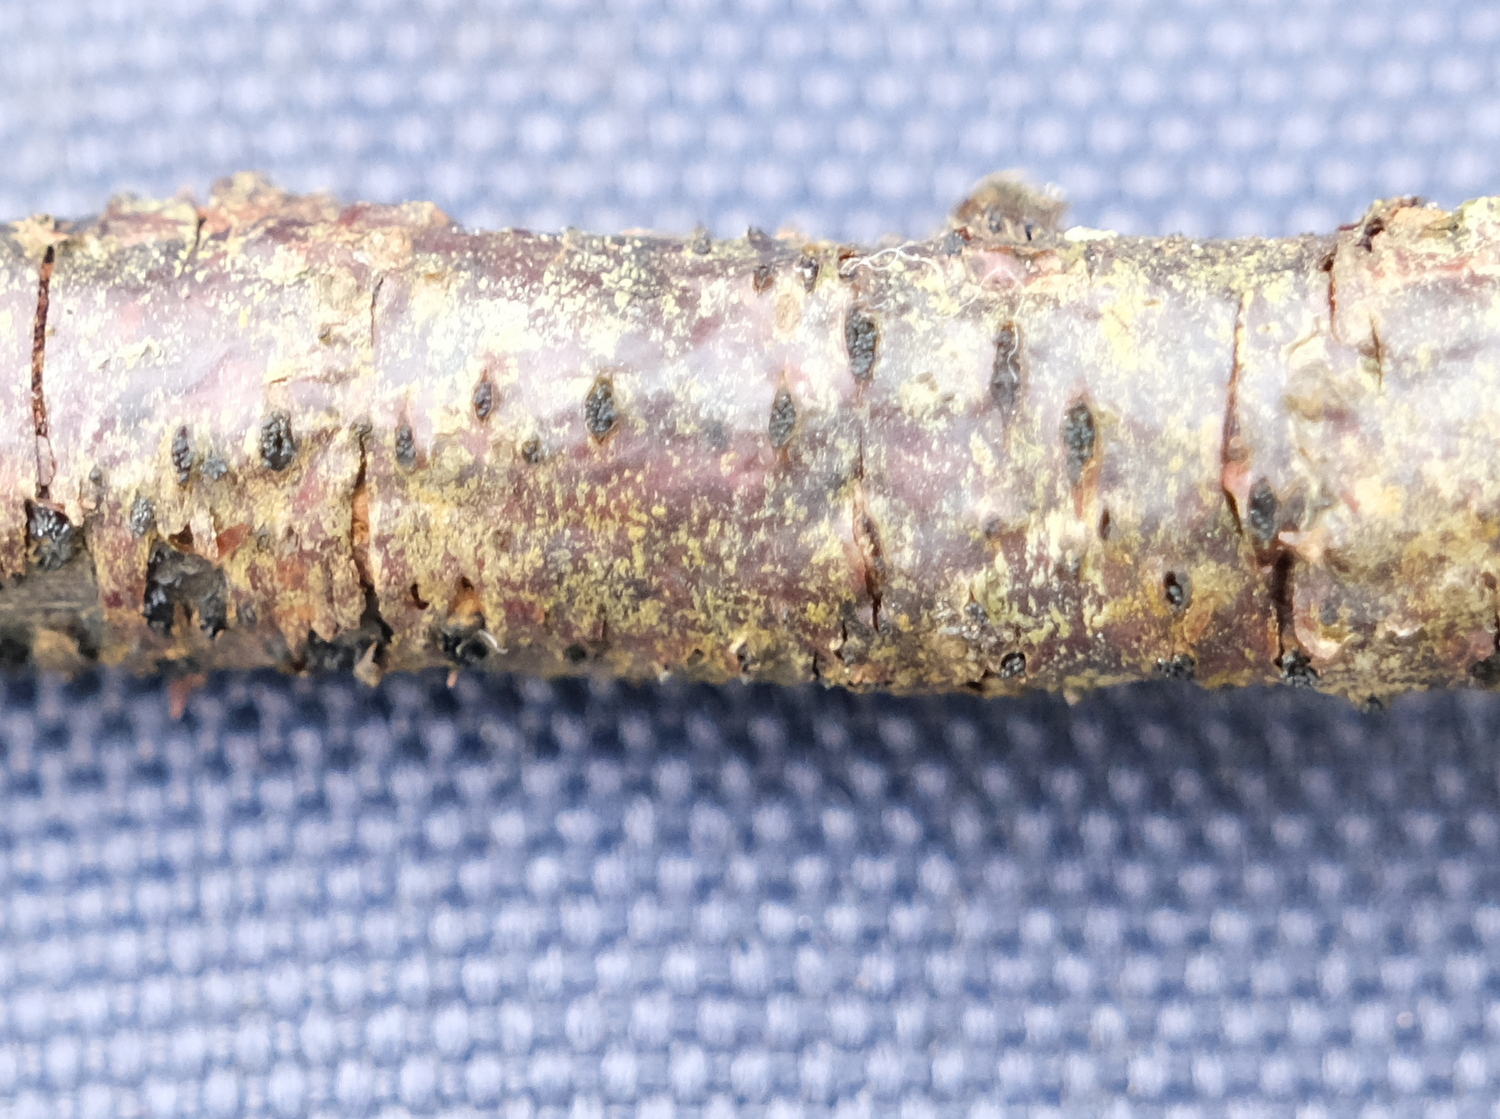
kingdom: Fungi
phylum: Ascomycota
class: Sordariomycetes
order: Diaporthales
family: Diaporthaceae
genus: Diaporthe
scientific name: Diaporthe strumella
